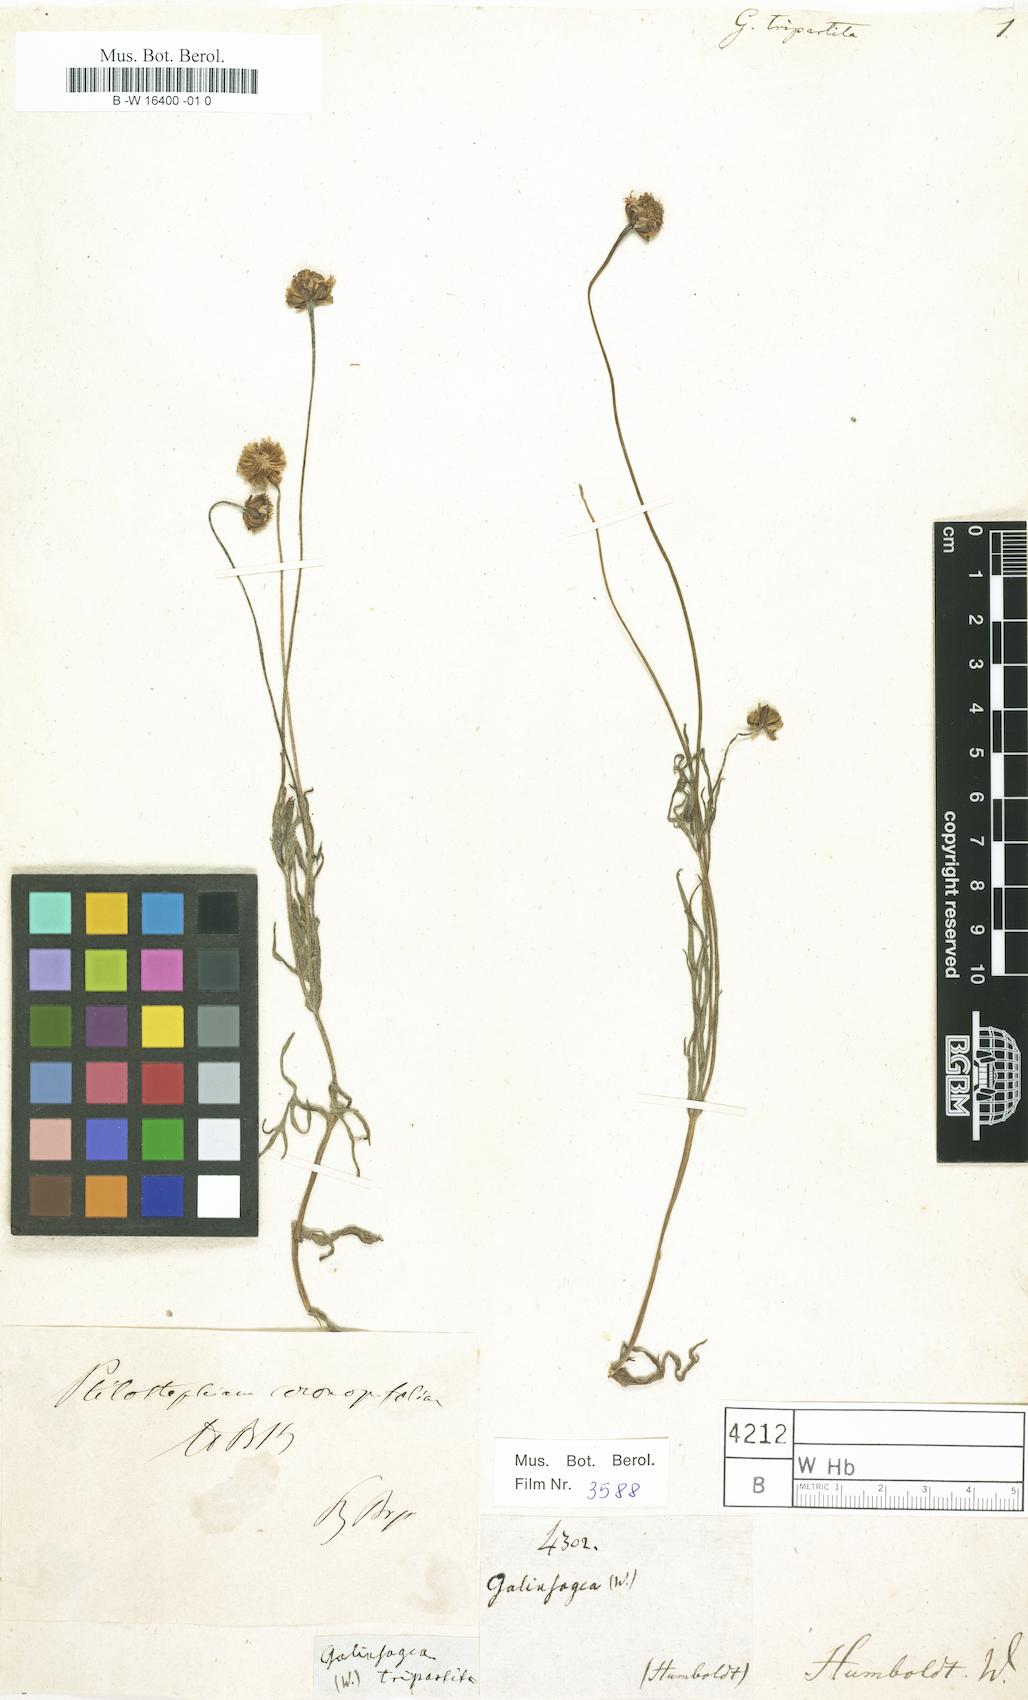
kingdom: Plantae
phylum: Tracheophyta
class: Magnoliopsida
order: Asterales
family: Asteraceae
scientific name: Asteraceae
